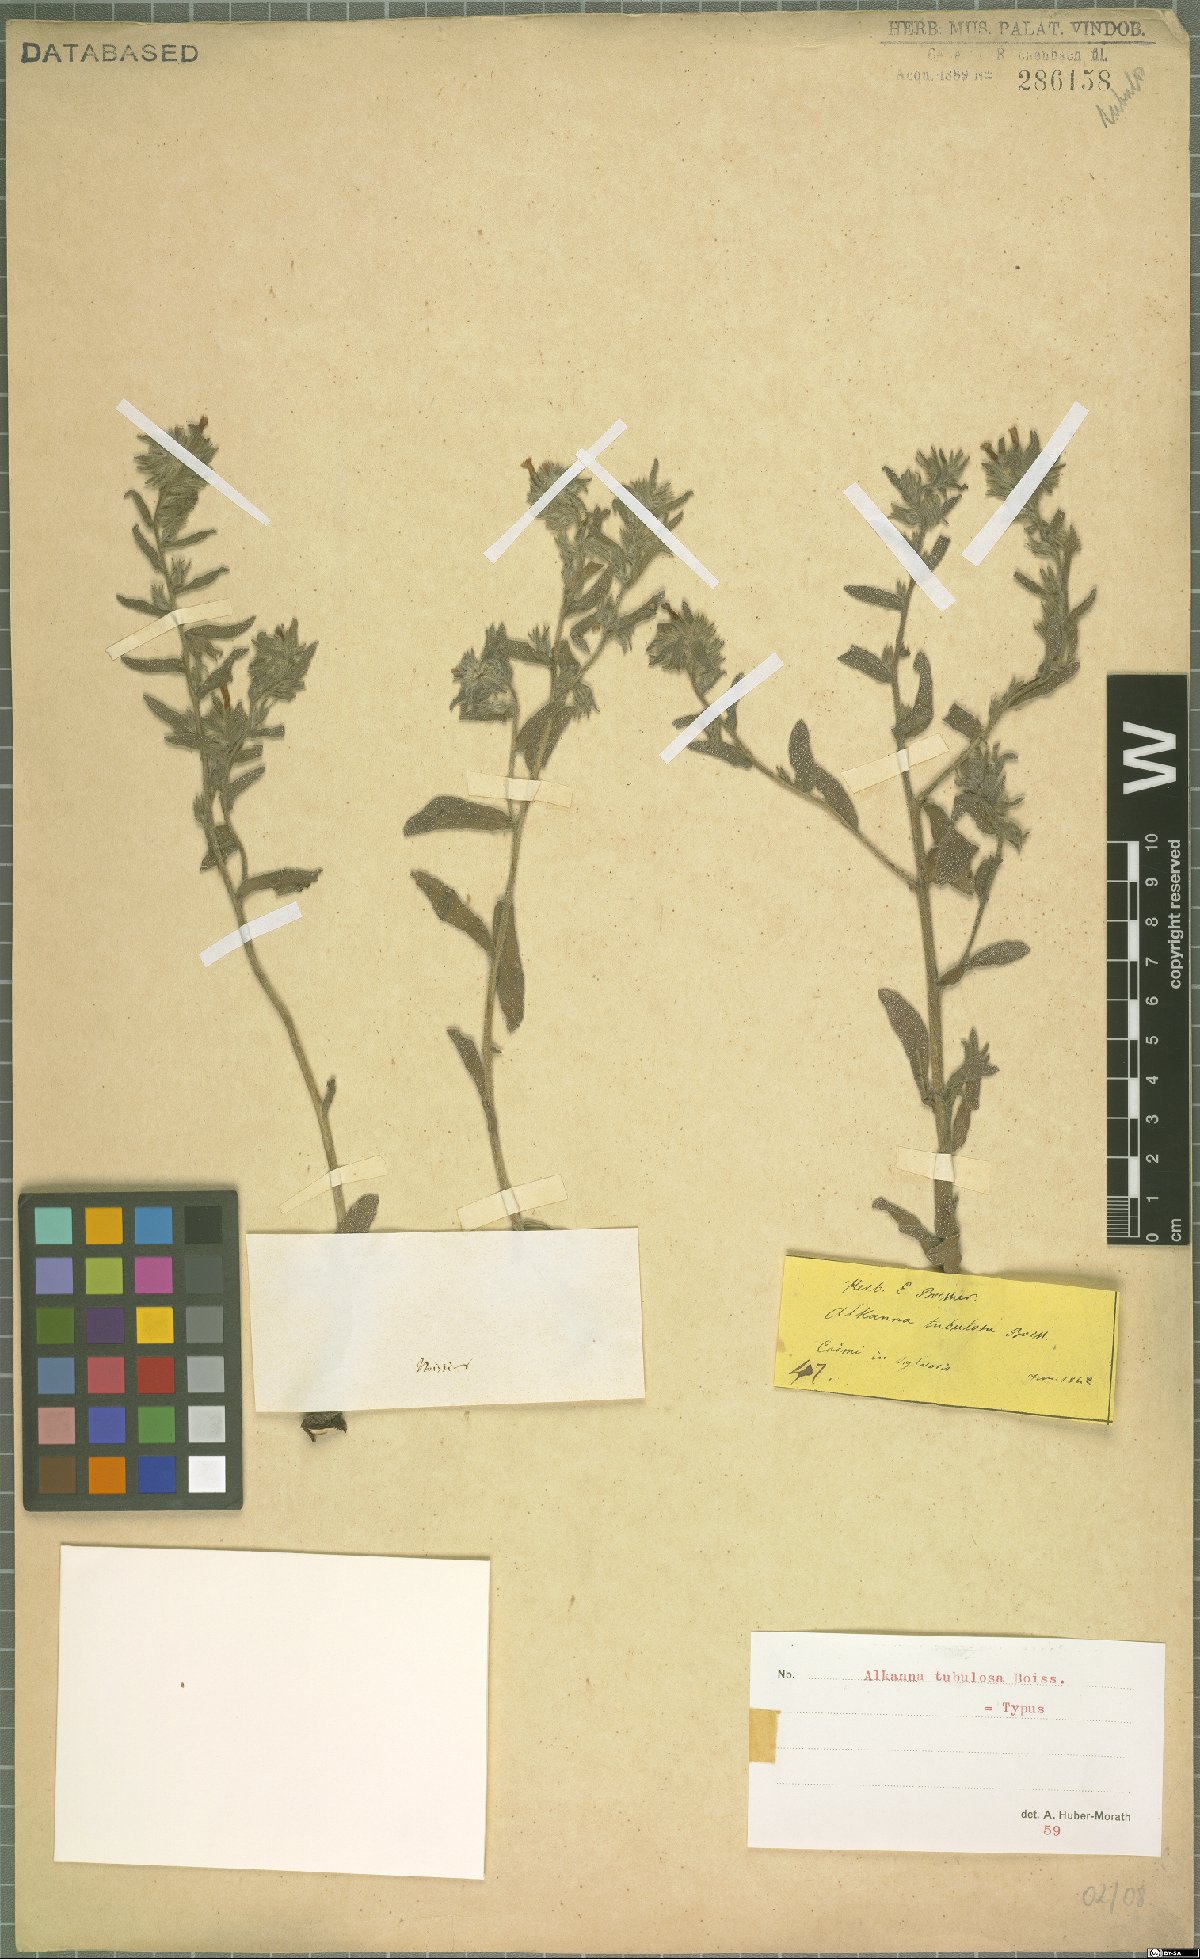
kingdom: Plantae
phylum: Tracheophyta
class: Magnoliopsida
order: Boraginales
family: Boraginaceae
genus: Alkanna
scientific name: Alkanna tubulosa
